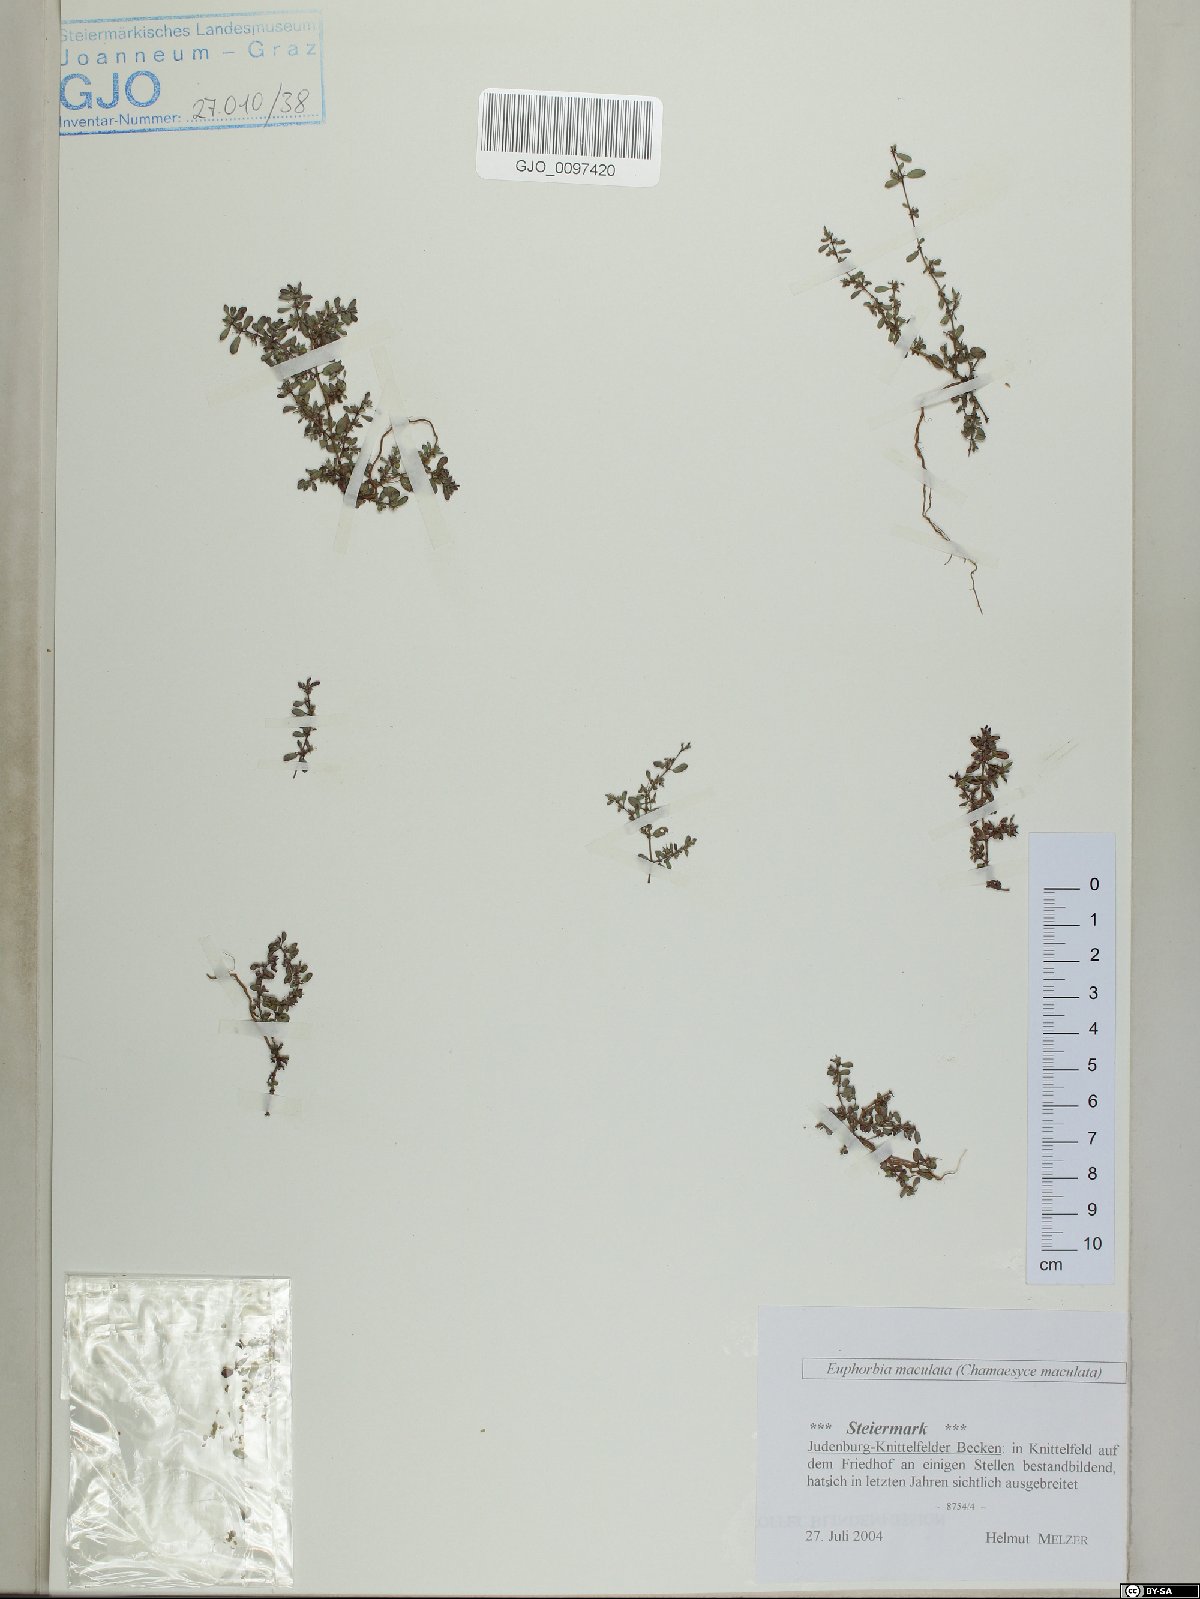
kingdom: Plantae
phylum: Tracheophyta
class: Magnoliopsida
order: Malpighiales
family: Euphorbiaceae
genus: Euphorbia
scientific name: Euphorbia maculata
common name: Spotted spurge
